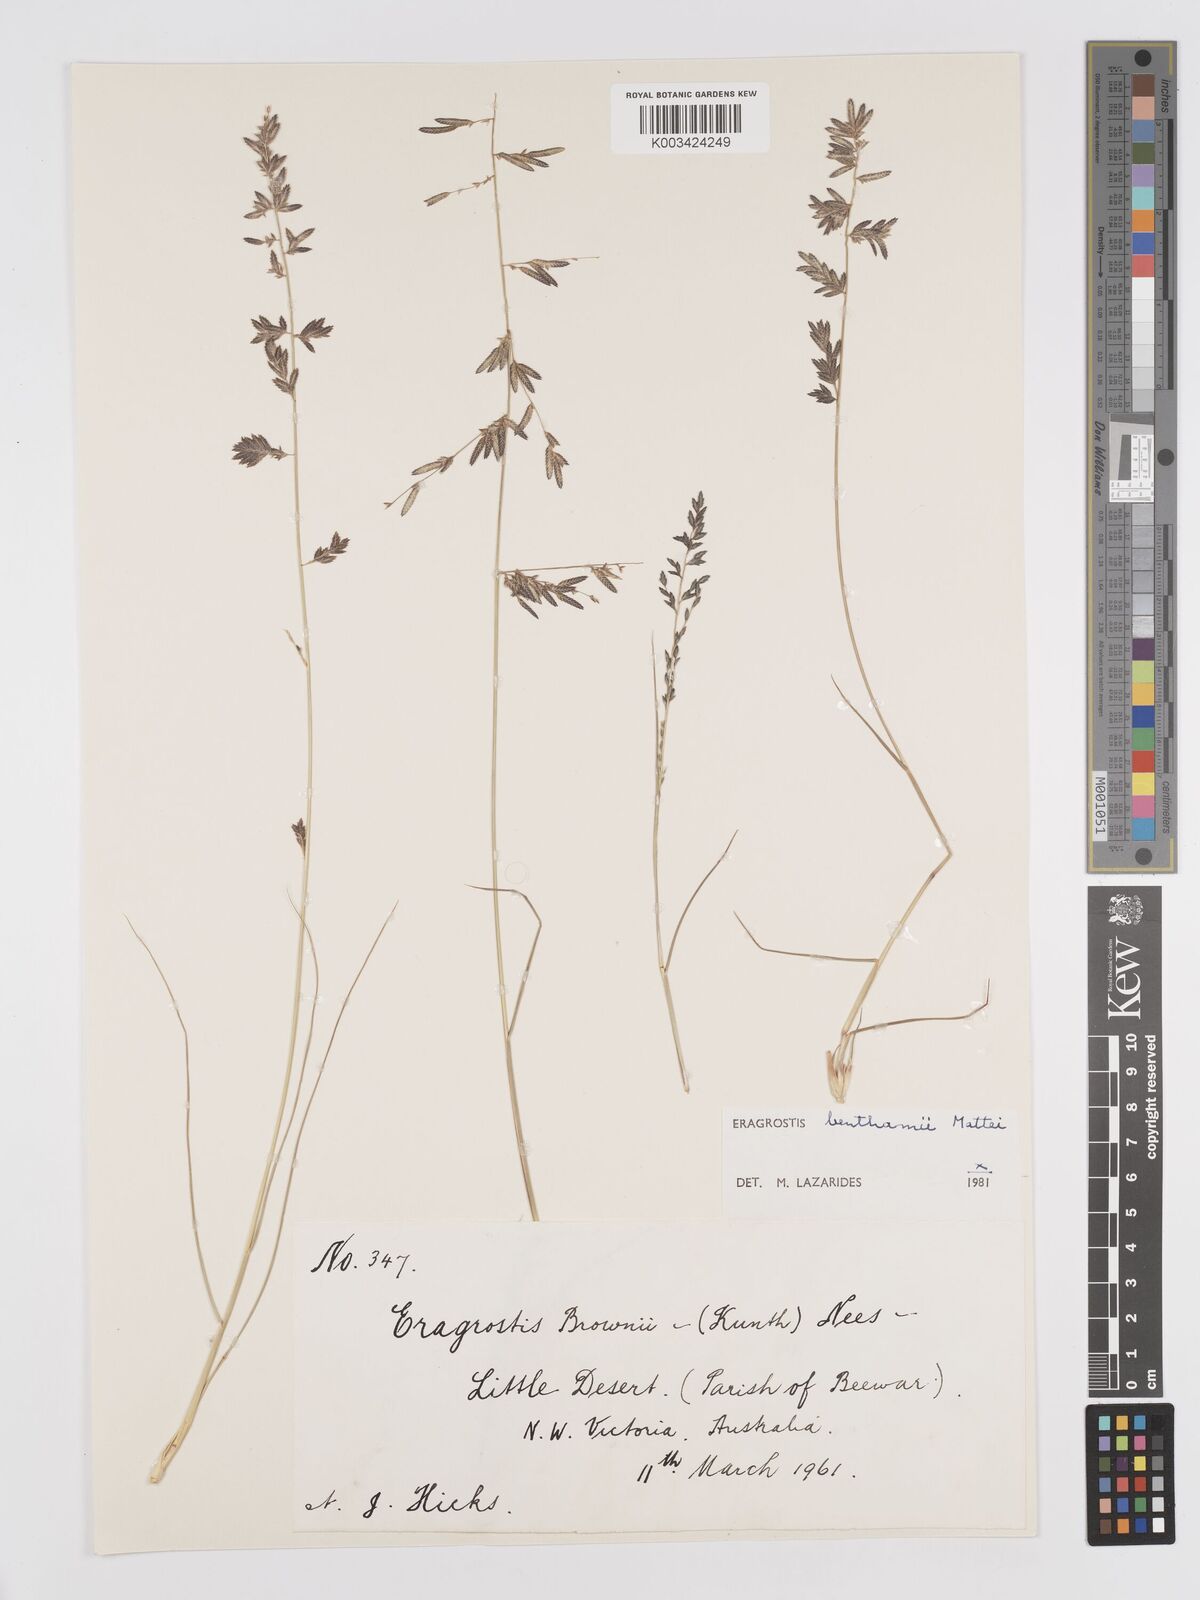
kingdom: Plantae
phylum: Tracheophyta
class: Liliopsida
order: Poales
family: Poaceae
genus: Eragrostis
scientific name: Eragrostis brownii
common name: Lovegrass
